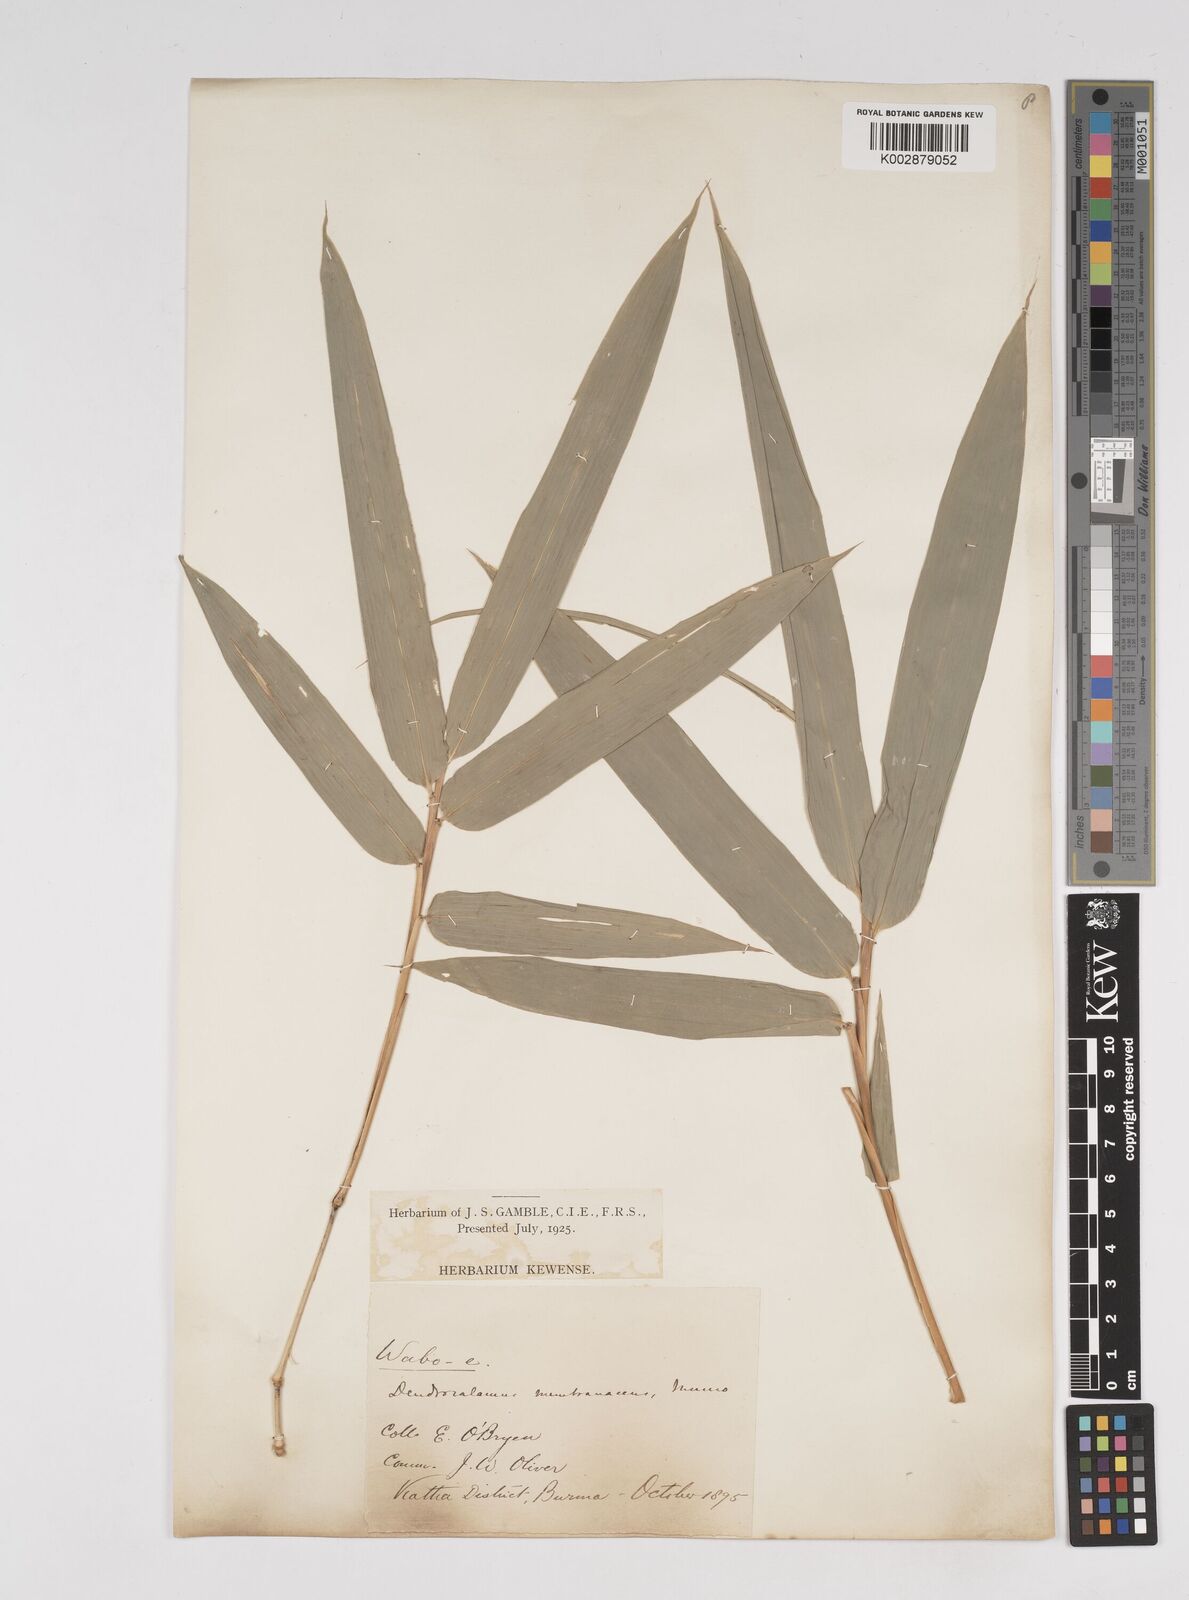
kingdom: Plantae
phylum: Tracheophyta
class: Liliopsida
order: Poales
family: Poaceae
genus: Dendrocalamus
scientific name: Dendrocalamus membranaceus
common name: White bamboo
